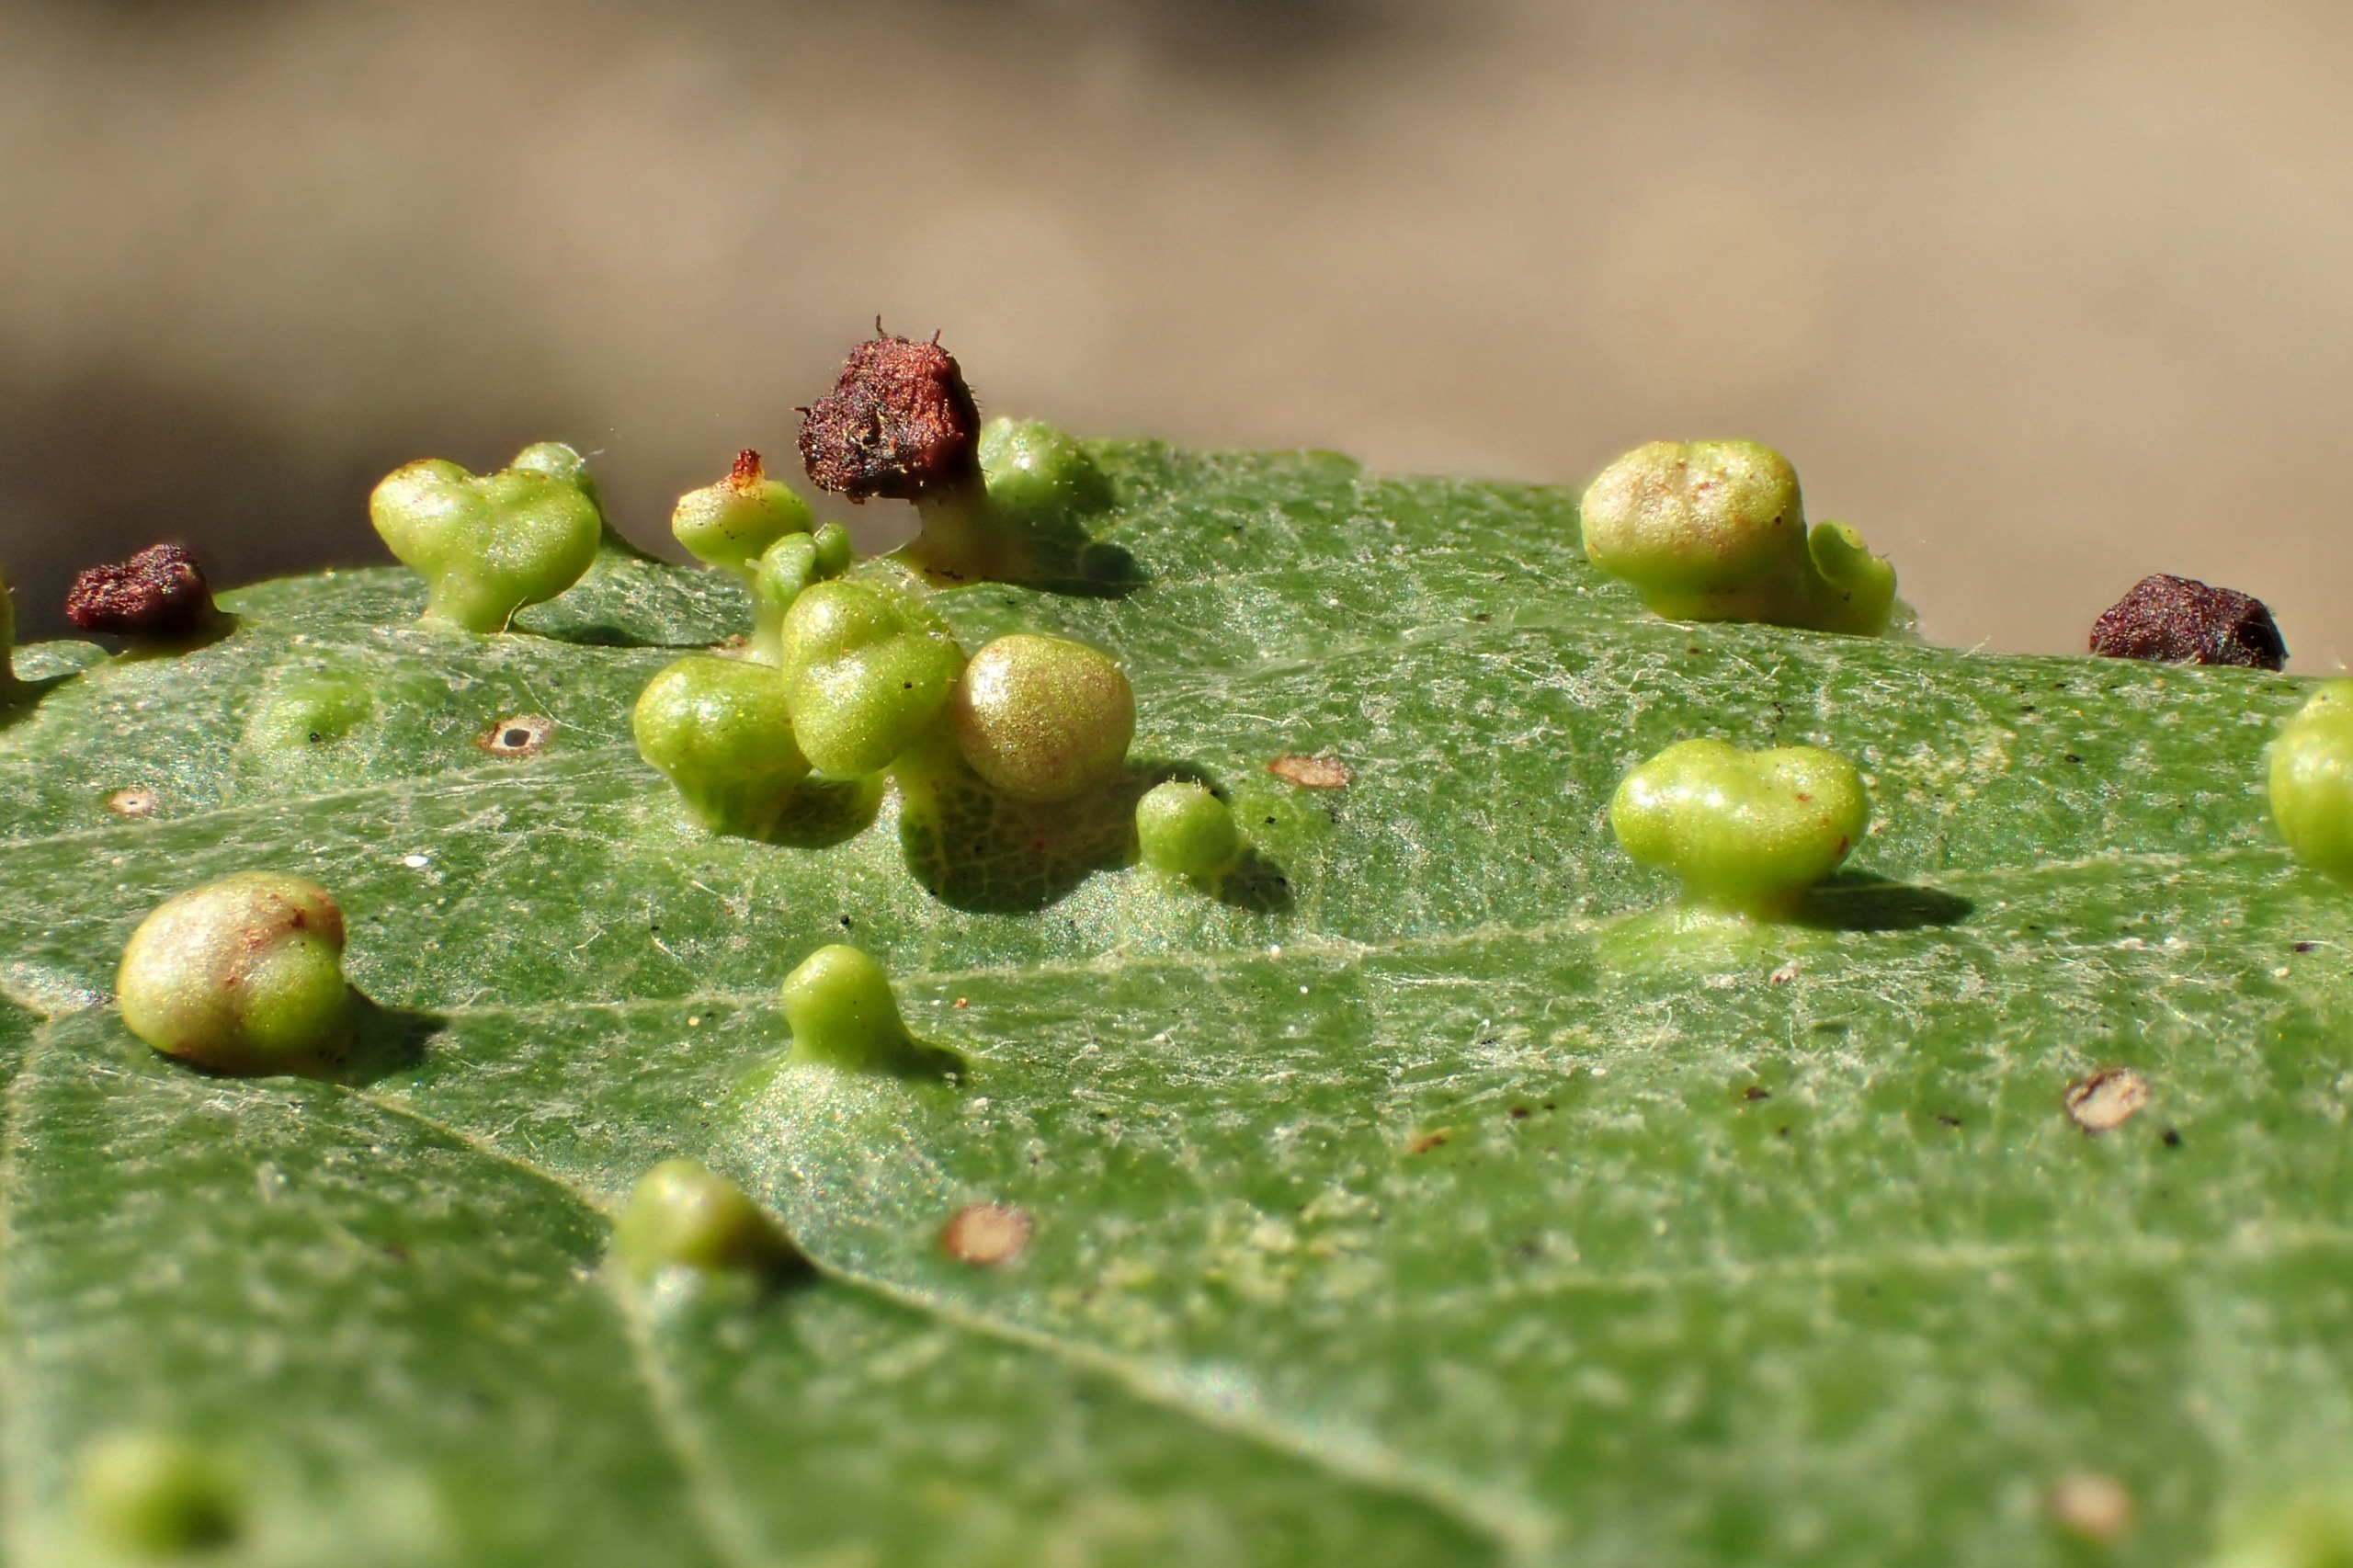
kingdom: Animalia
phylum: Arthropoda
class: Arachnida
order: Trombidiformes
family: Eriophyidae
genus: Eriophyes
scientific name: Eriophyes laevis
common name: Ellepunggalmide
